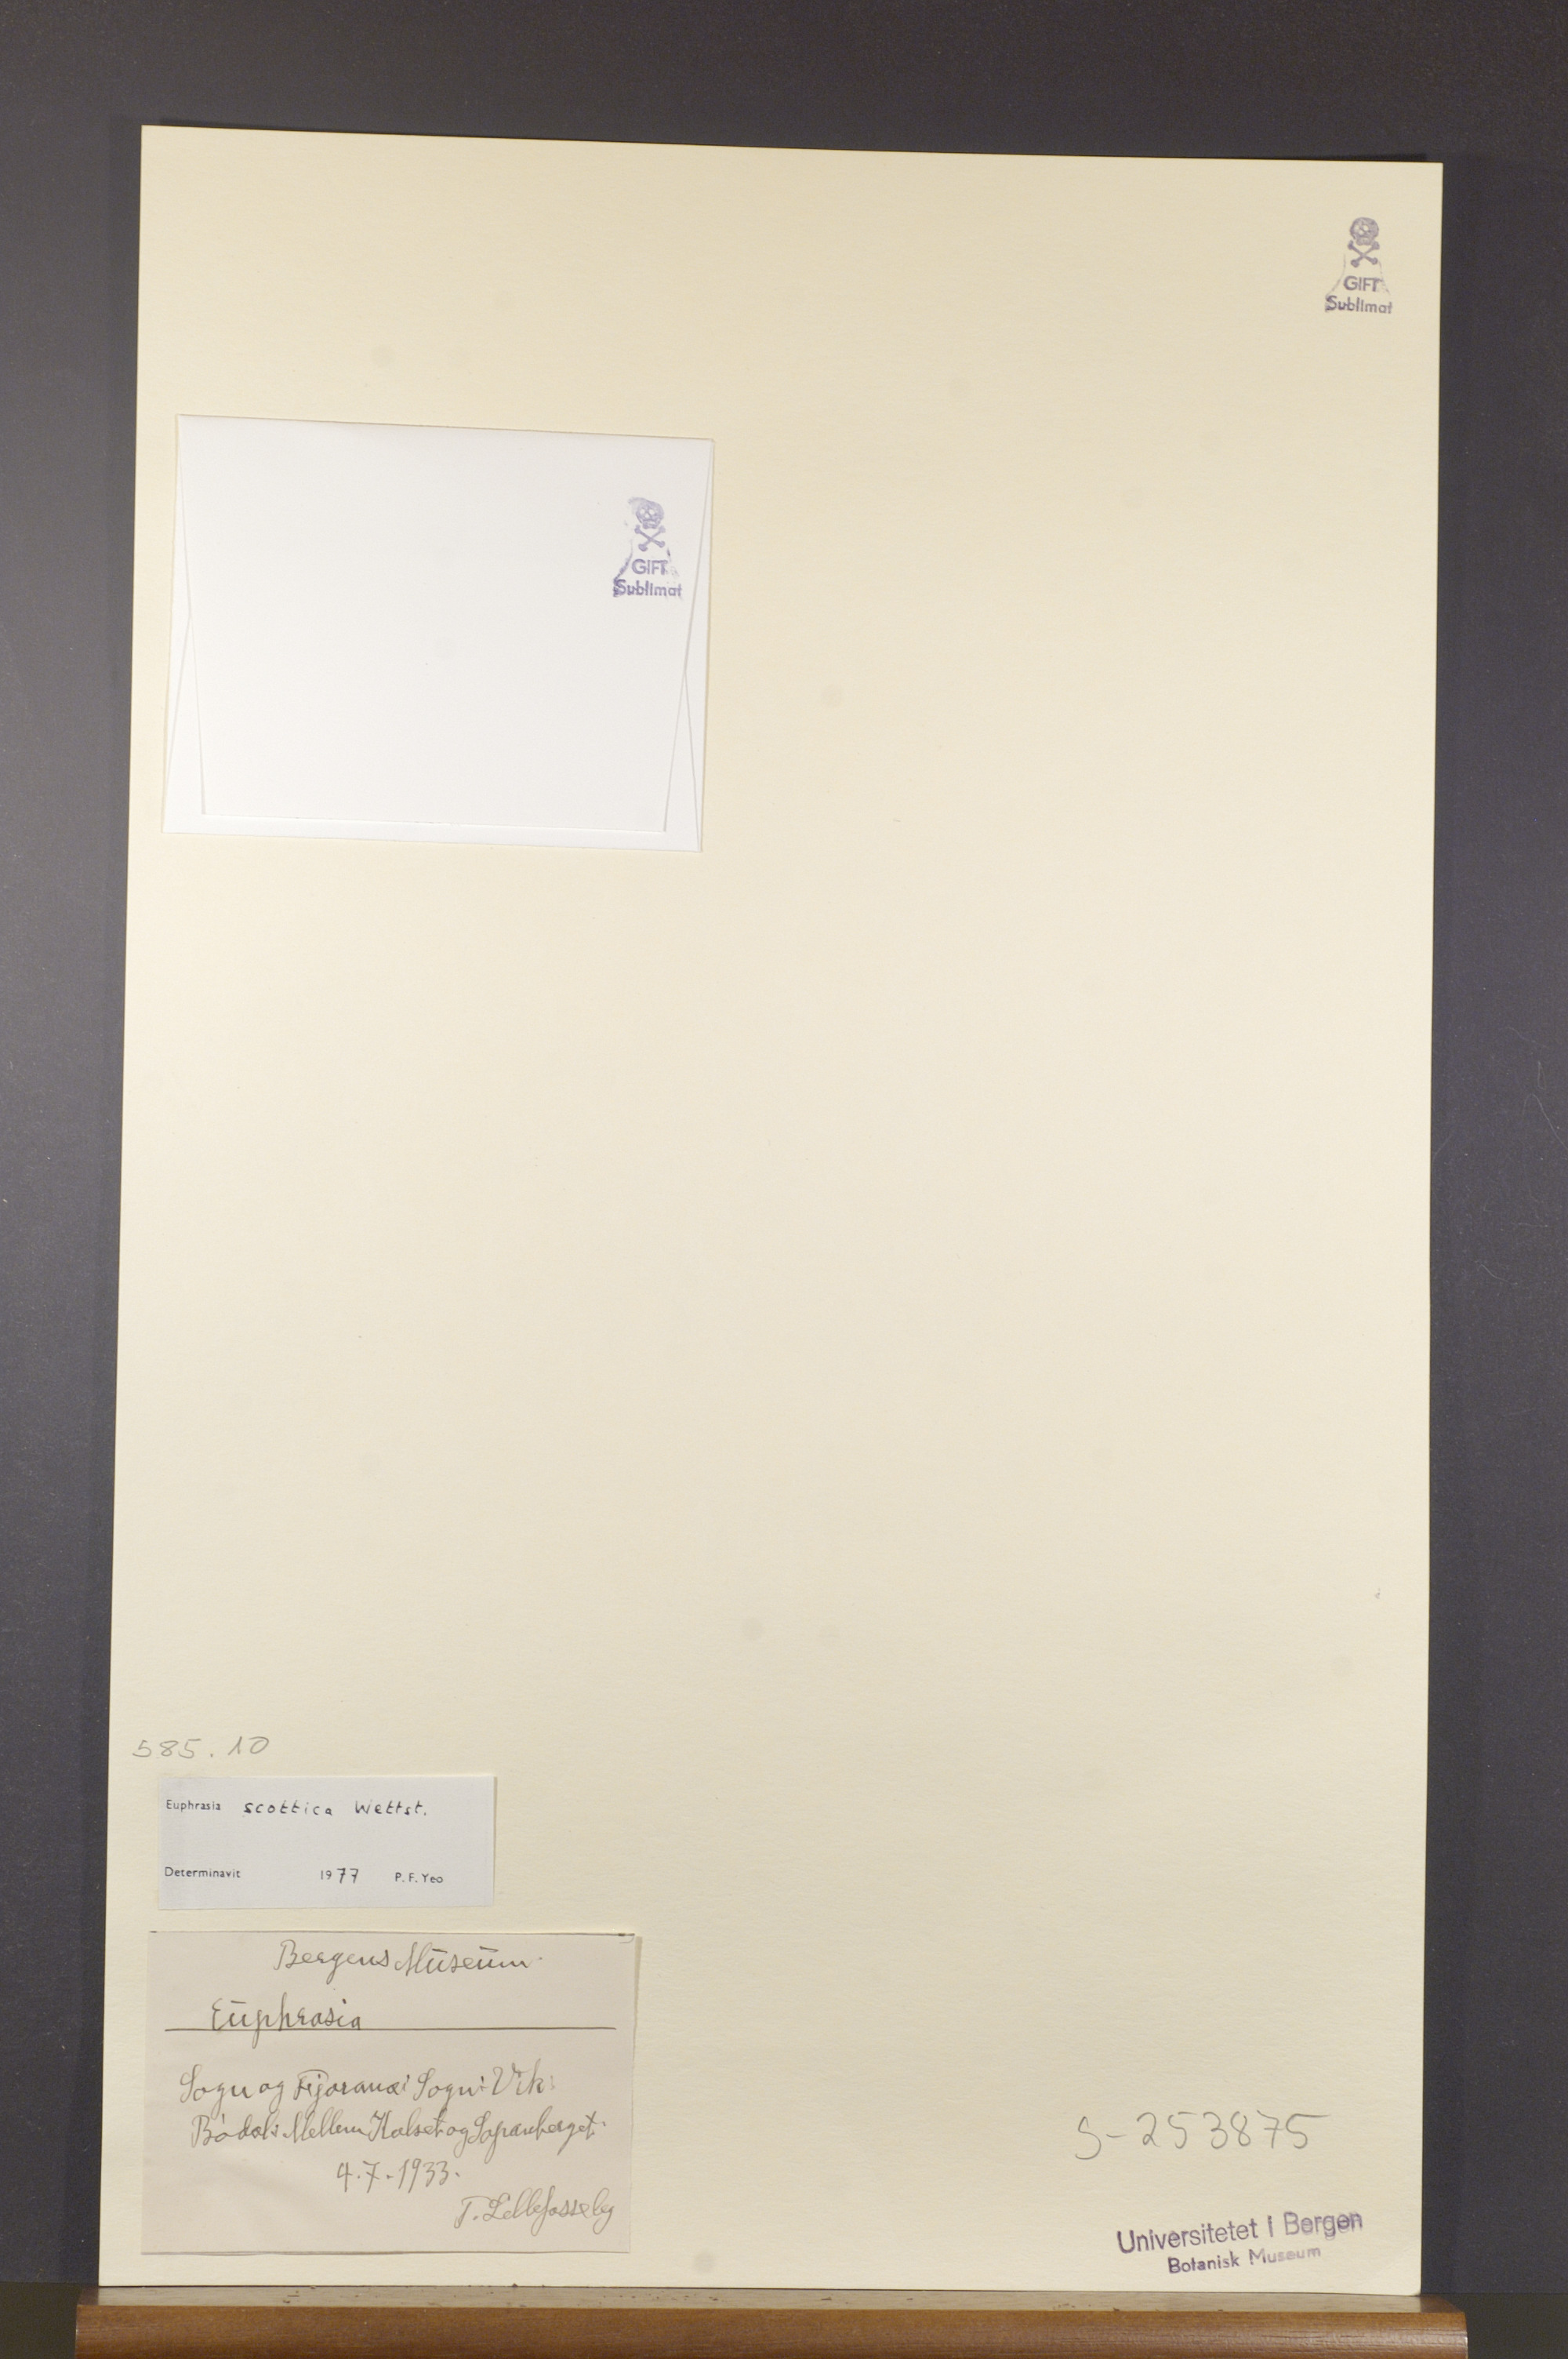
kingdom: Plantae
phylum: Tracheophyta
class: Magnoliopsida
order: Lamiales
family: Orobanchaceae
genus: Euphrasia
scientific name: Euphrasia scottica
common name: Slender scottish eyebright
